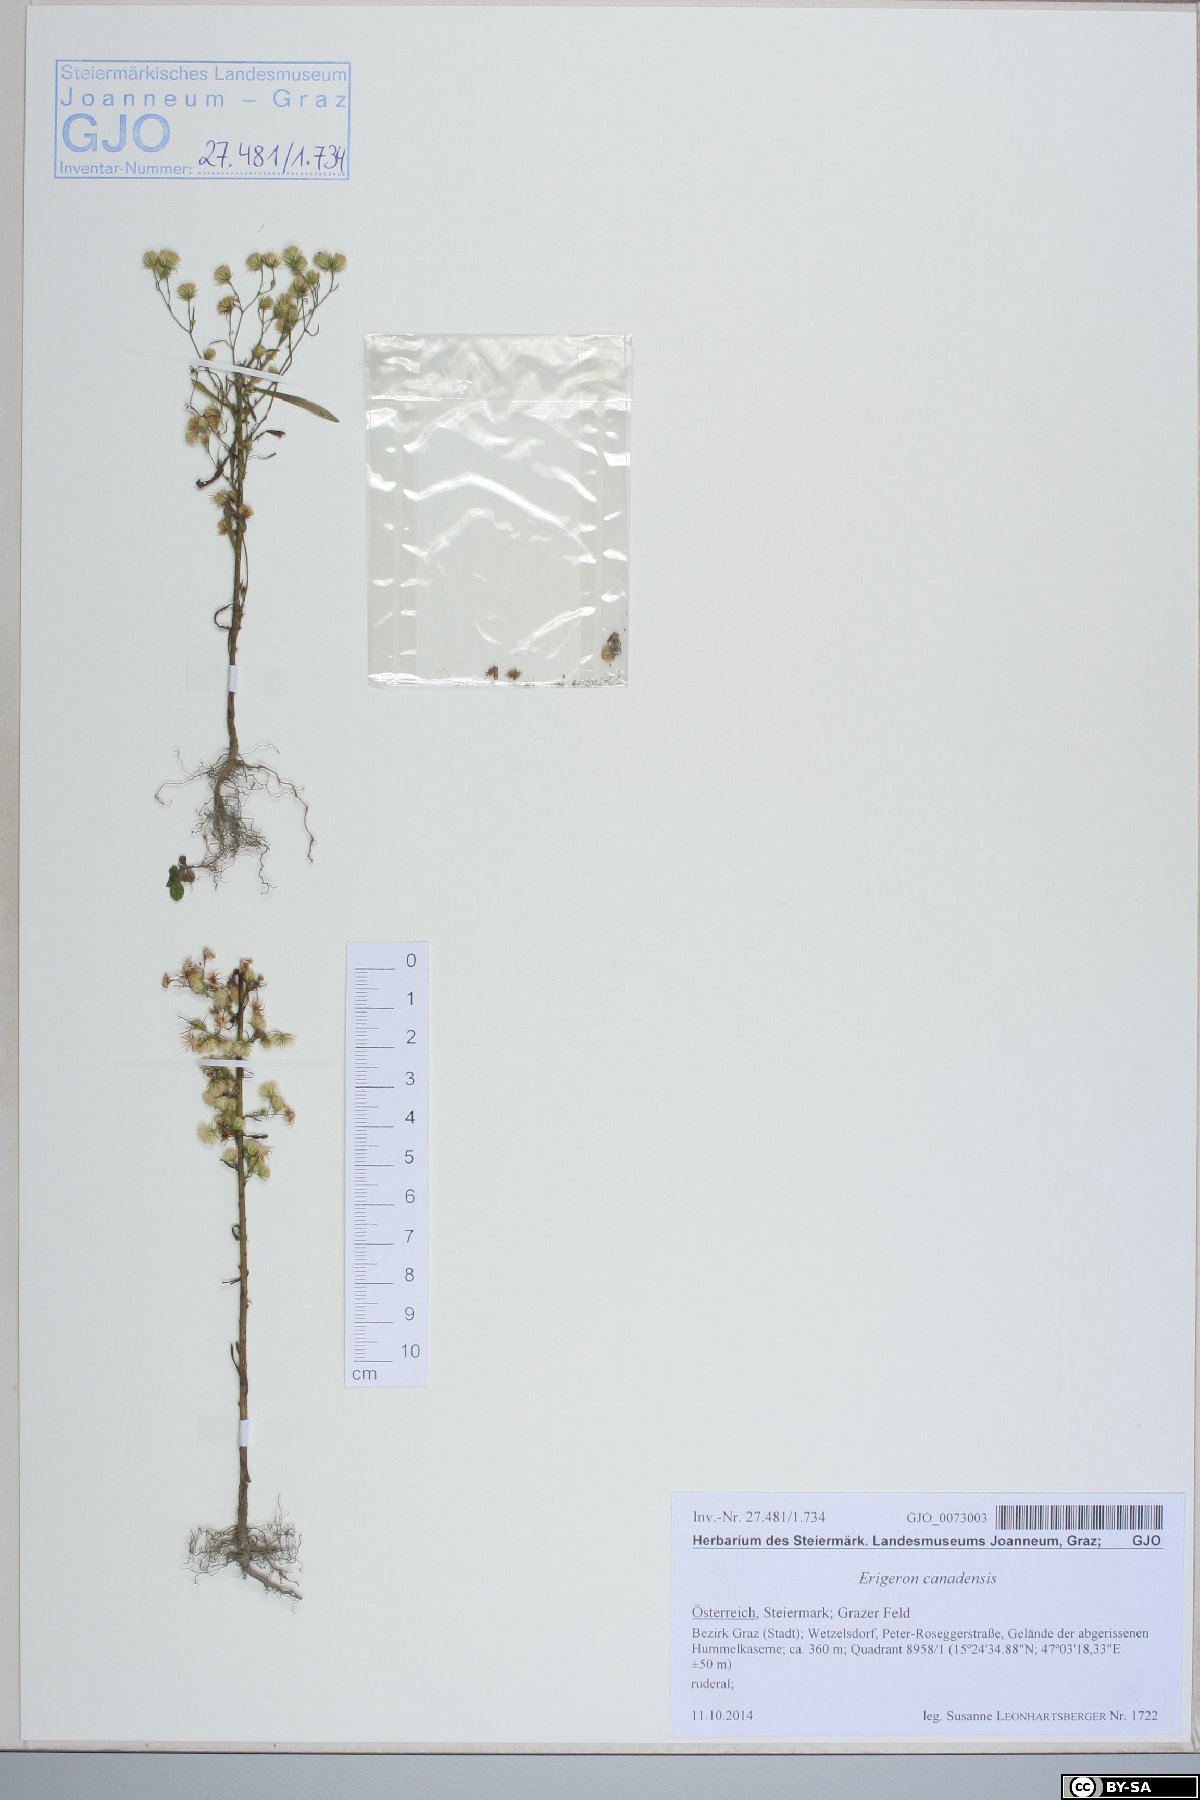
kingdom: Plantae
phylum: Tracheophyta
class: Magnoliopsida
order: Asterales
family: Asteraceae
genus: Erigeron
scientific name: Erigeron canadensis
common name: Canadian fleabane
